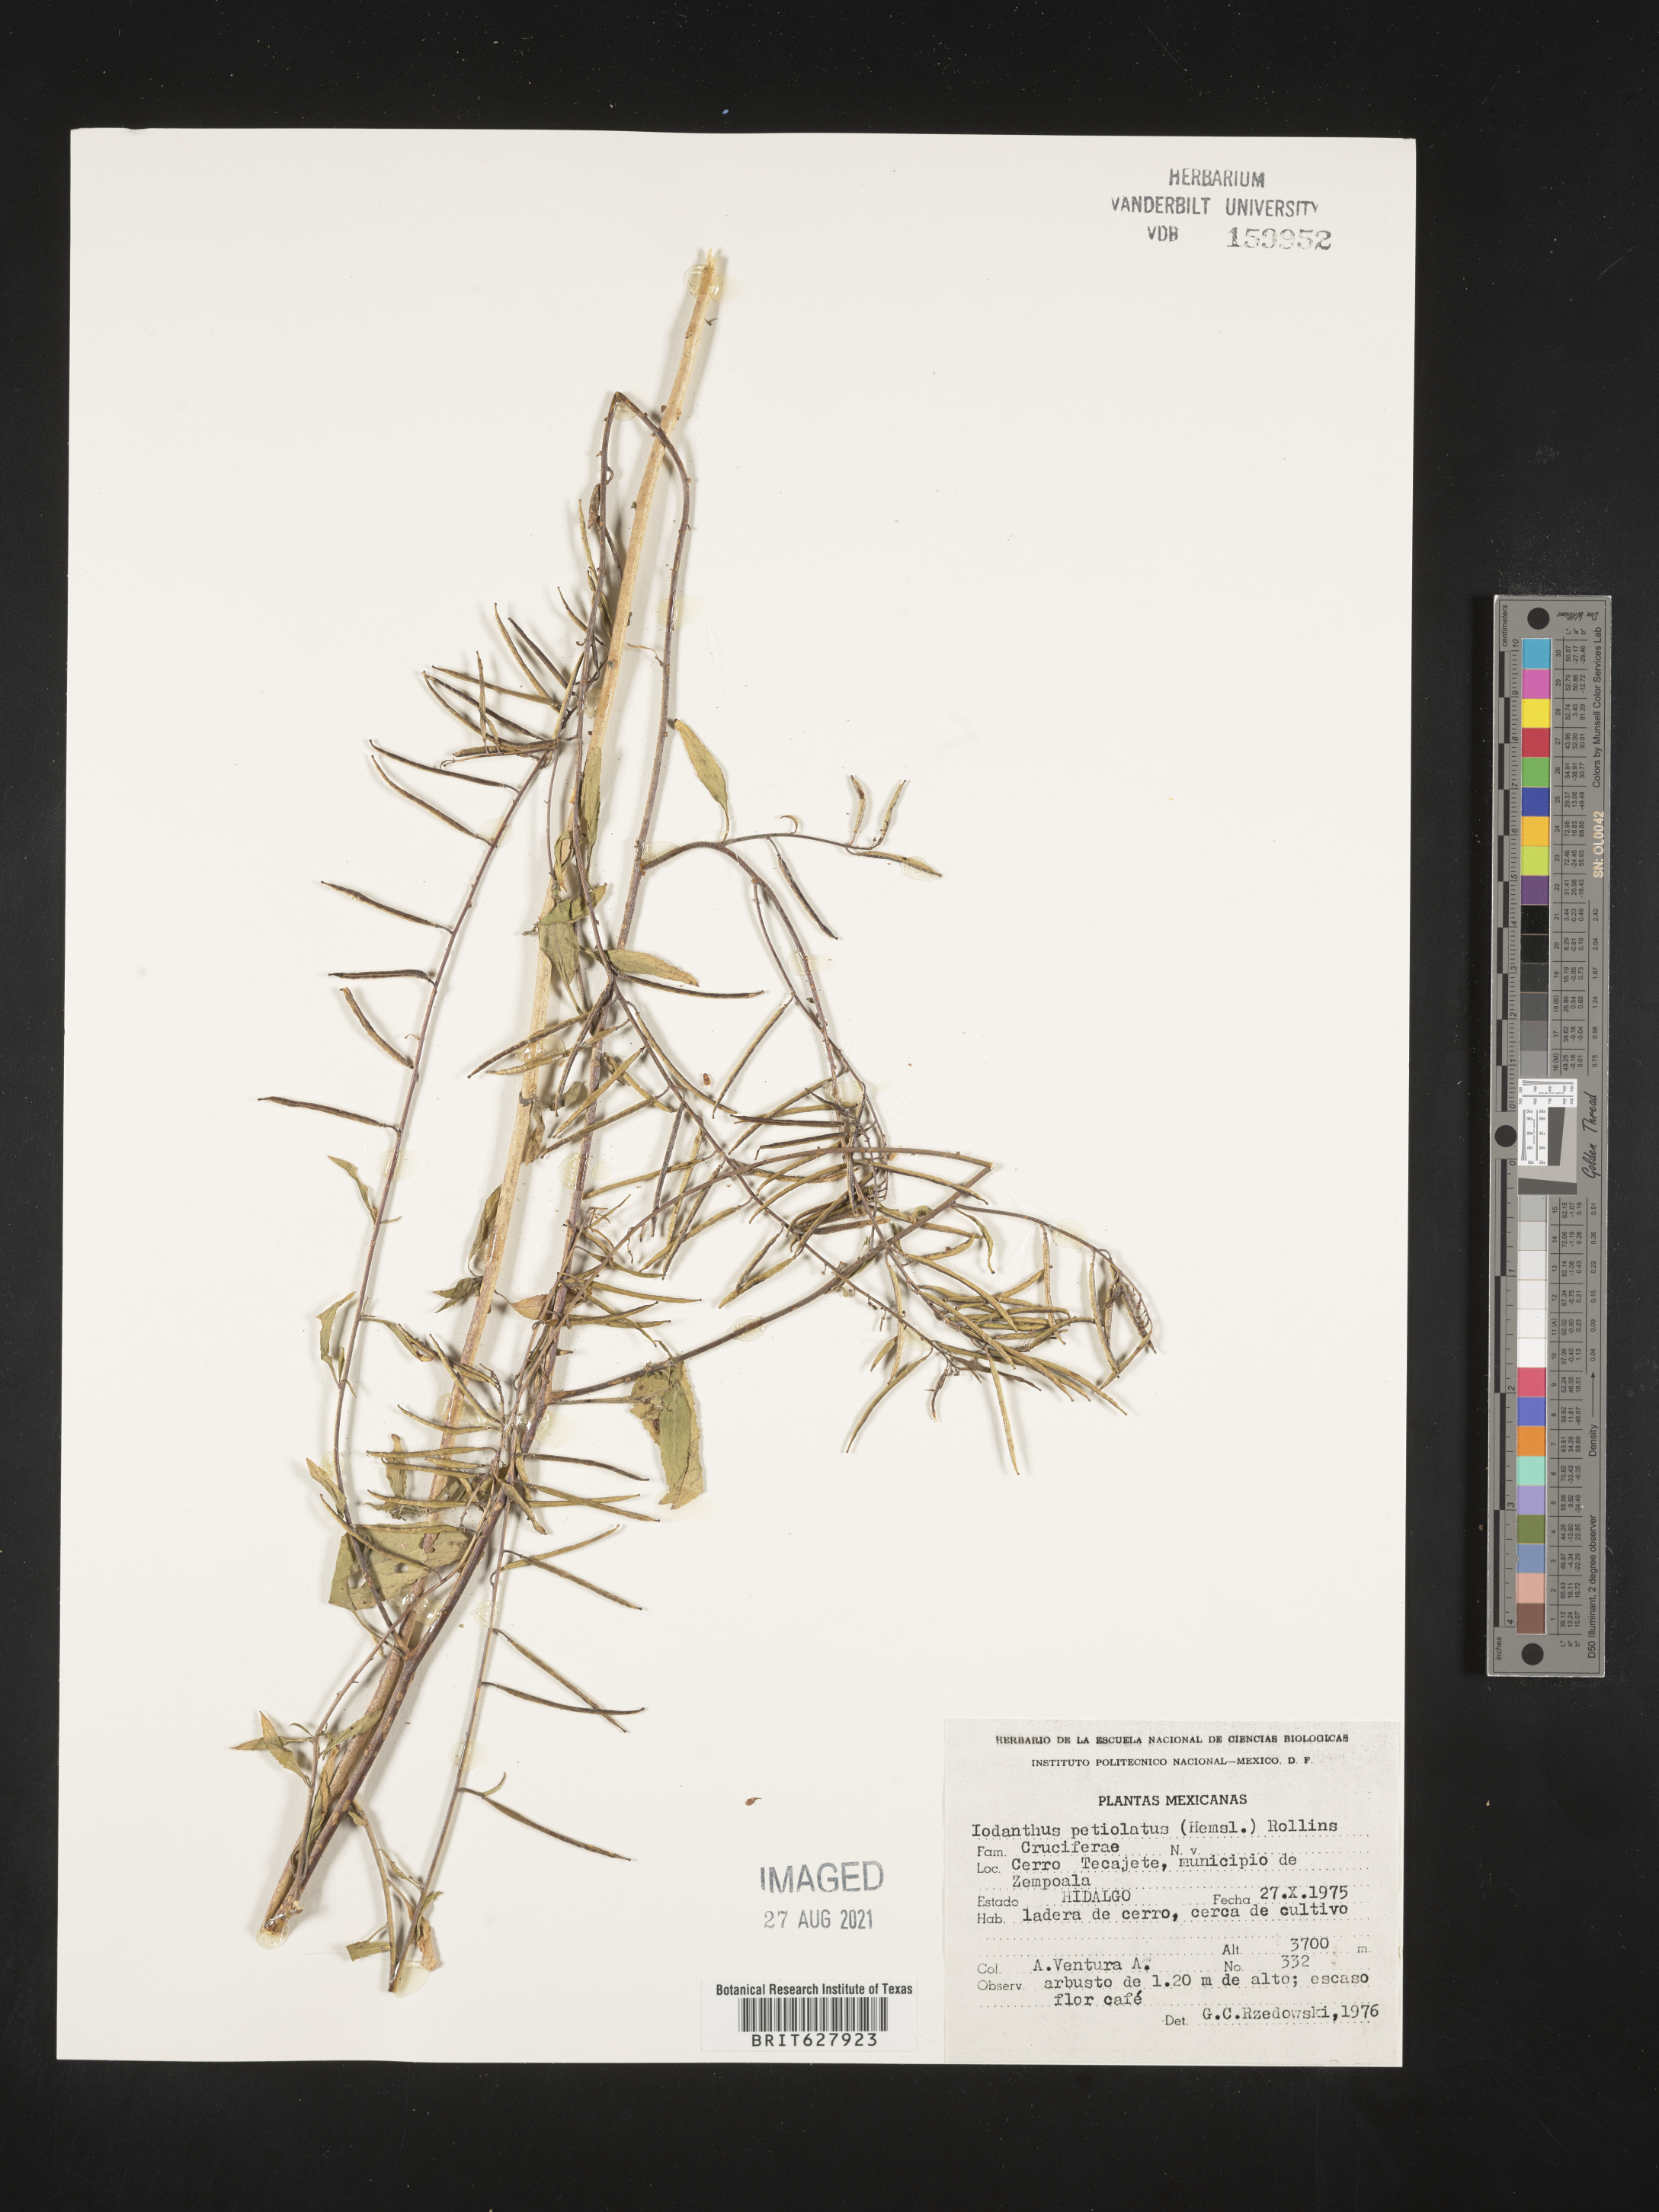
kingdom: Plantae
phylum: Tracheophyta
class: Magnoliopsida
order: Brassicales
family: Brassicaceae
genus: Iodanthus
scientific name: Iodanthus
